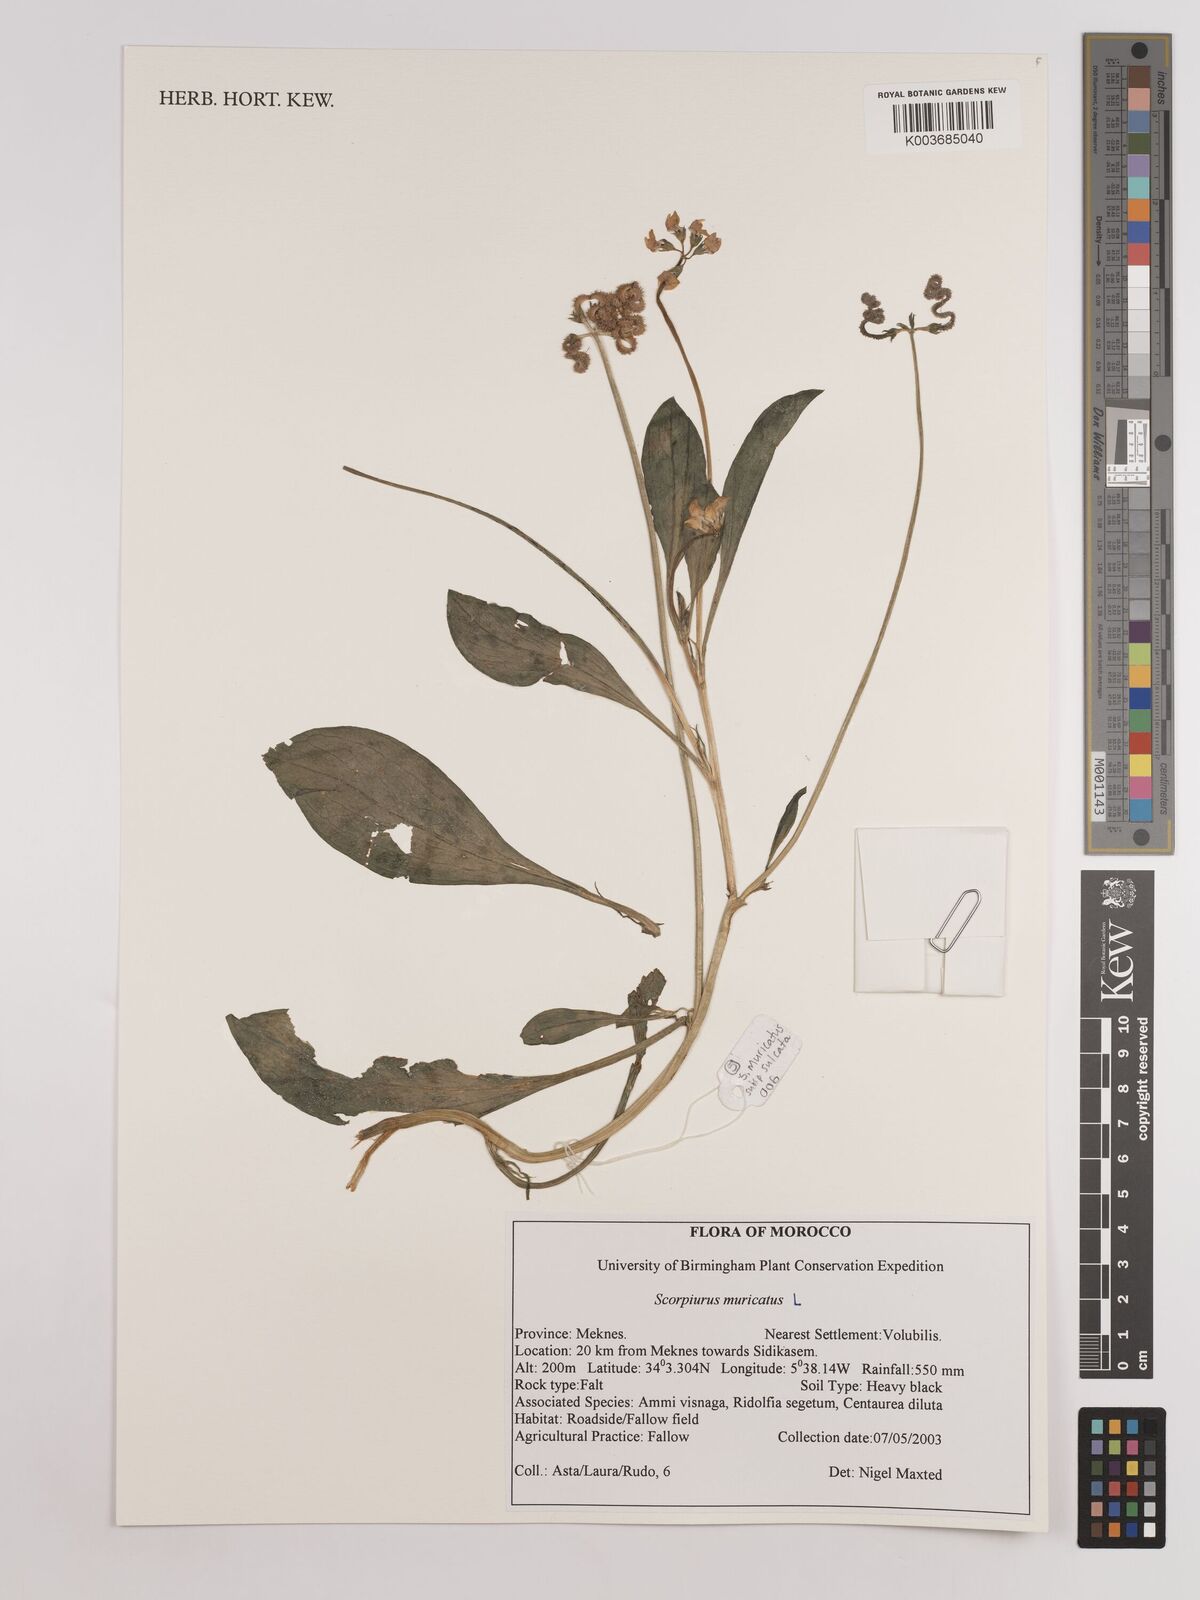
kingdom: Plantae
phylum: Tracheophyta
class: Magnoliopsida
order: Fabales
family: Fabaceae
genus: Scorpiurus
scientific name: Scorpiurus muricatus
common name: Caterpillar-plant
